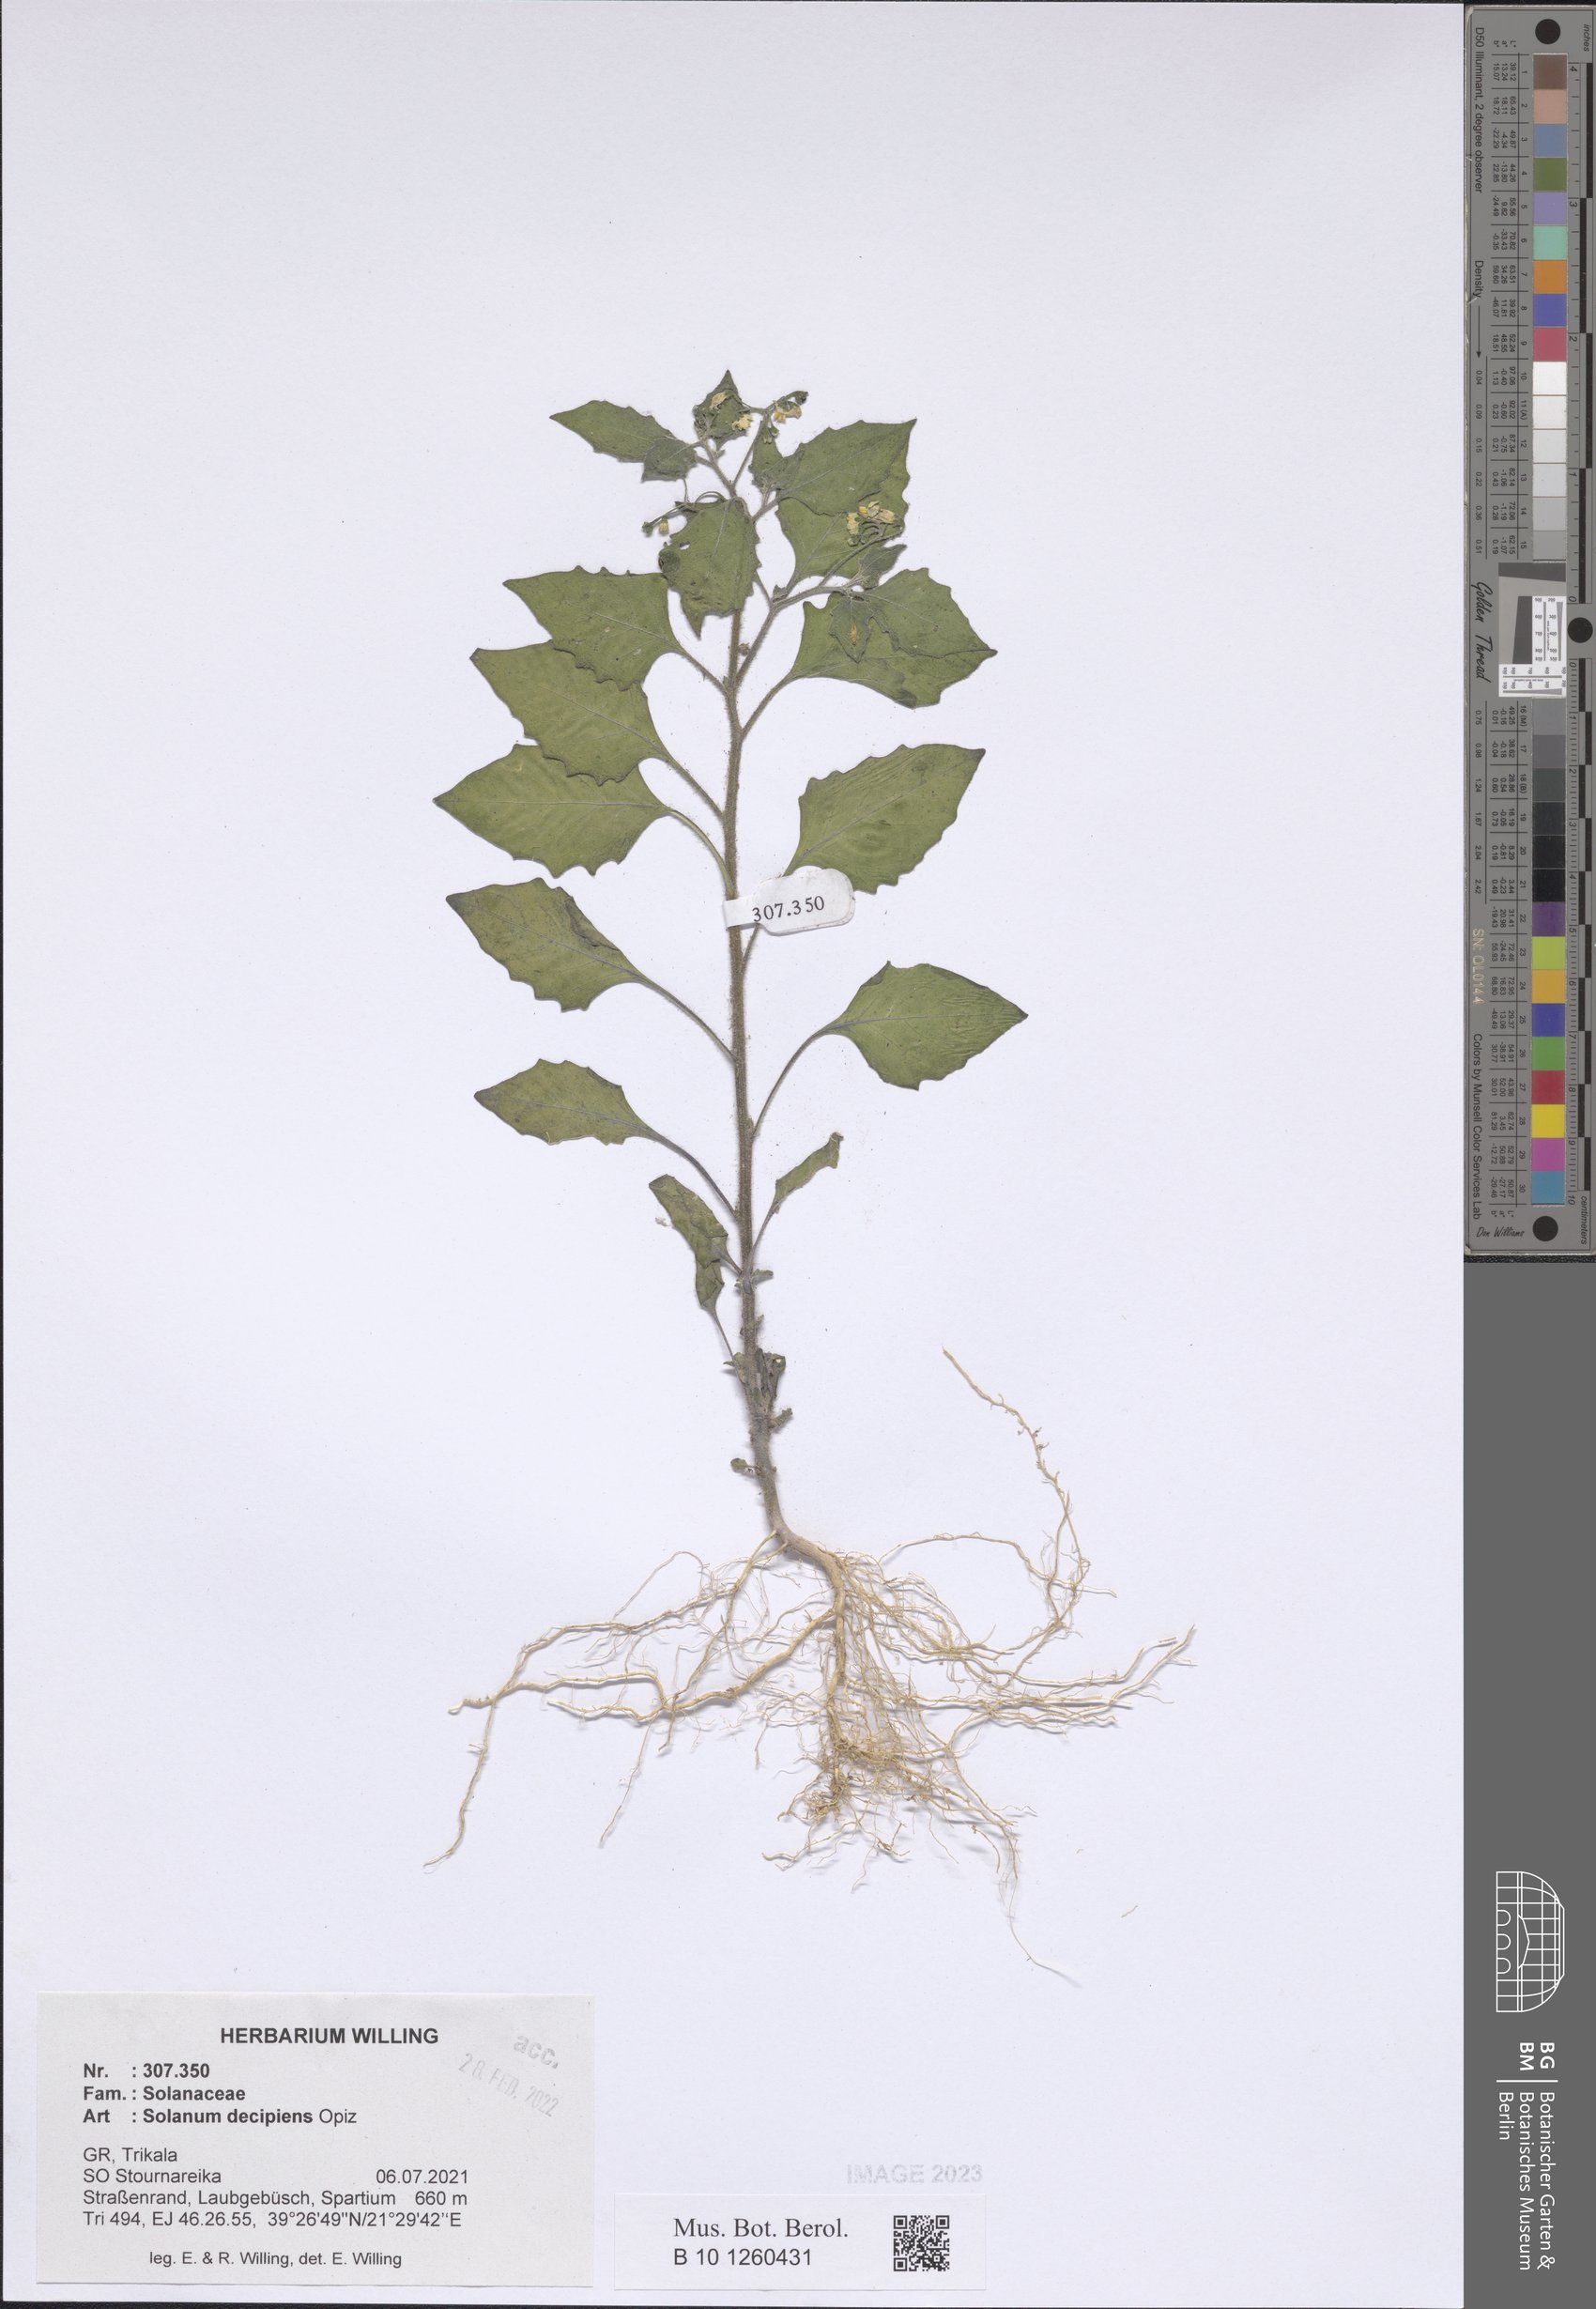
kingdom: Plantae
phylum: Tracheophyta
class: Magnoliopsida
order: Solanales
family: Solanaceae
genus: Solanum
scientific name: Solanum decipiens
